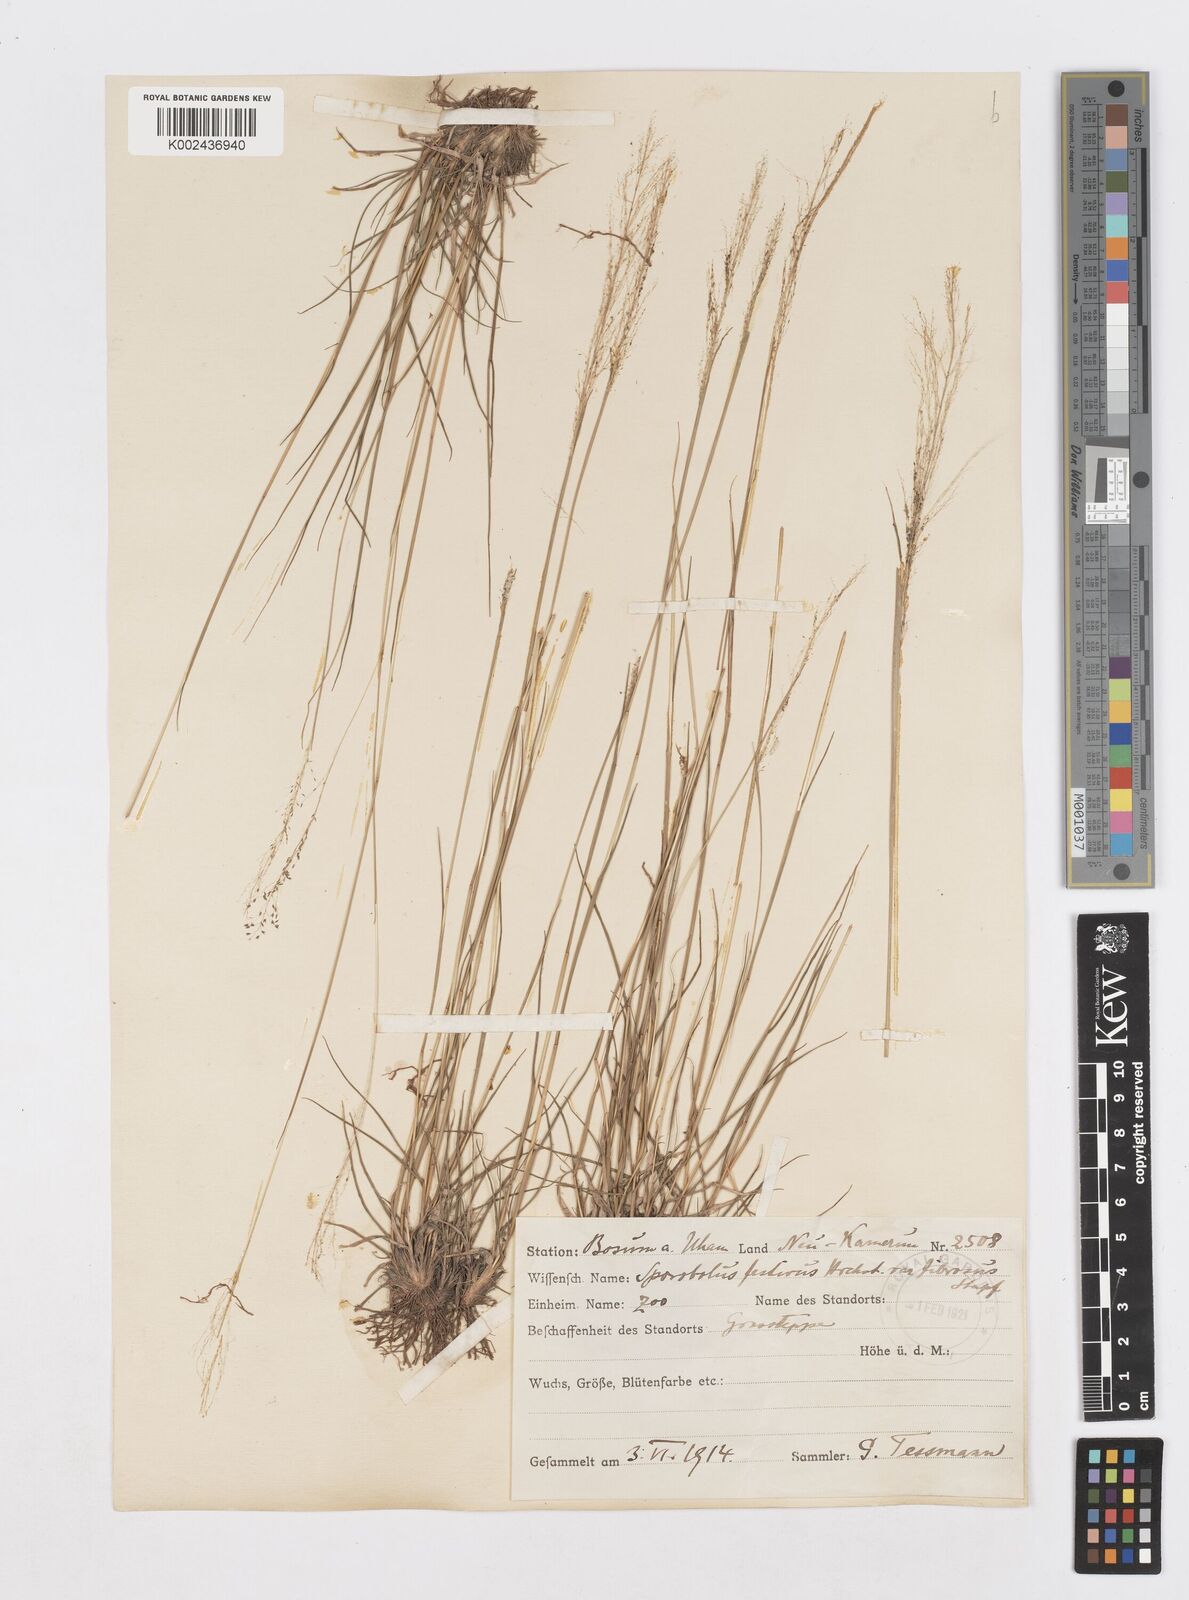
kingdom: Plantae
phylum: Tracheophyta
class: Liliopsida
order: Poales
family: Poaceae
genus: Sporobolus
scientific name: Sporobolus festivus
